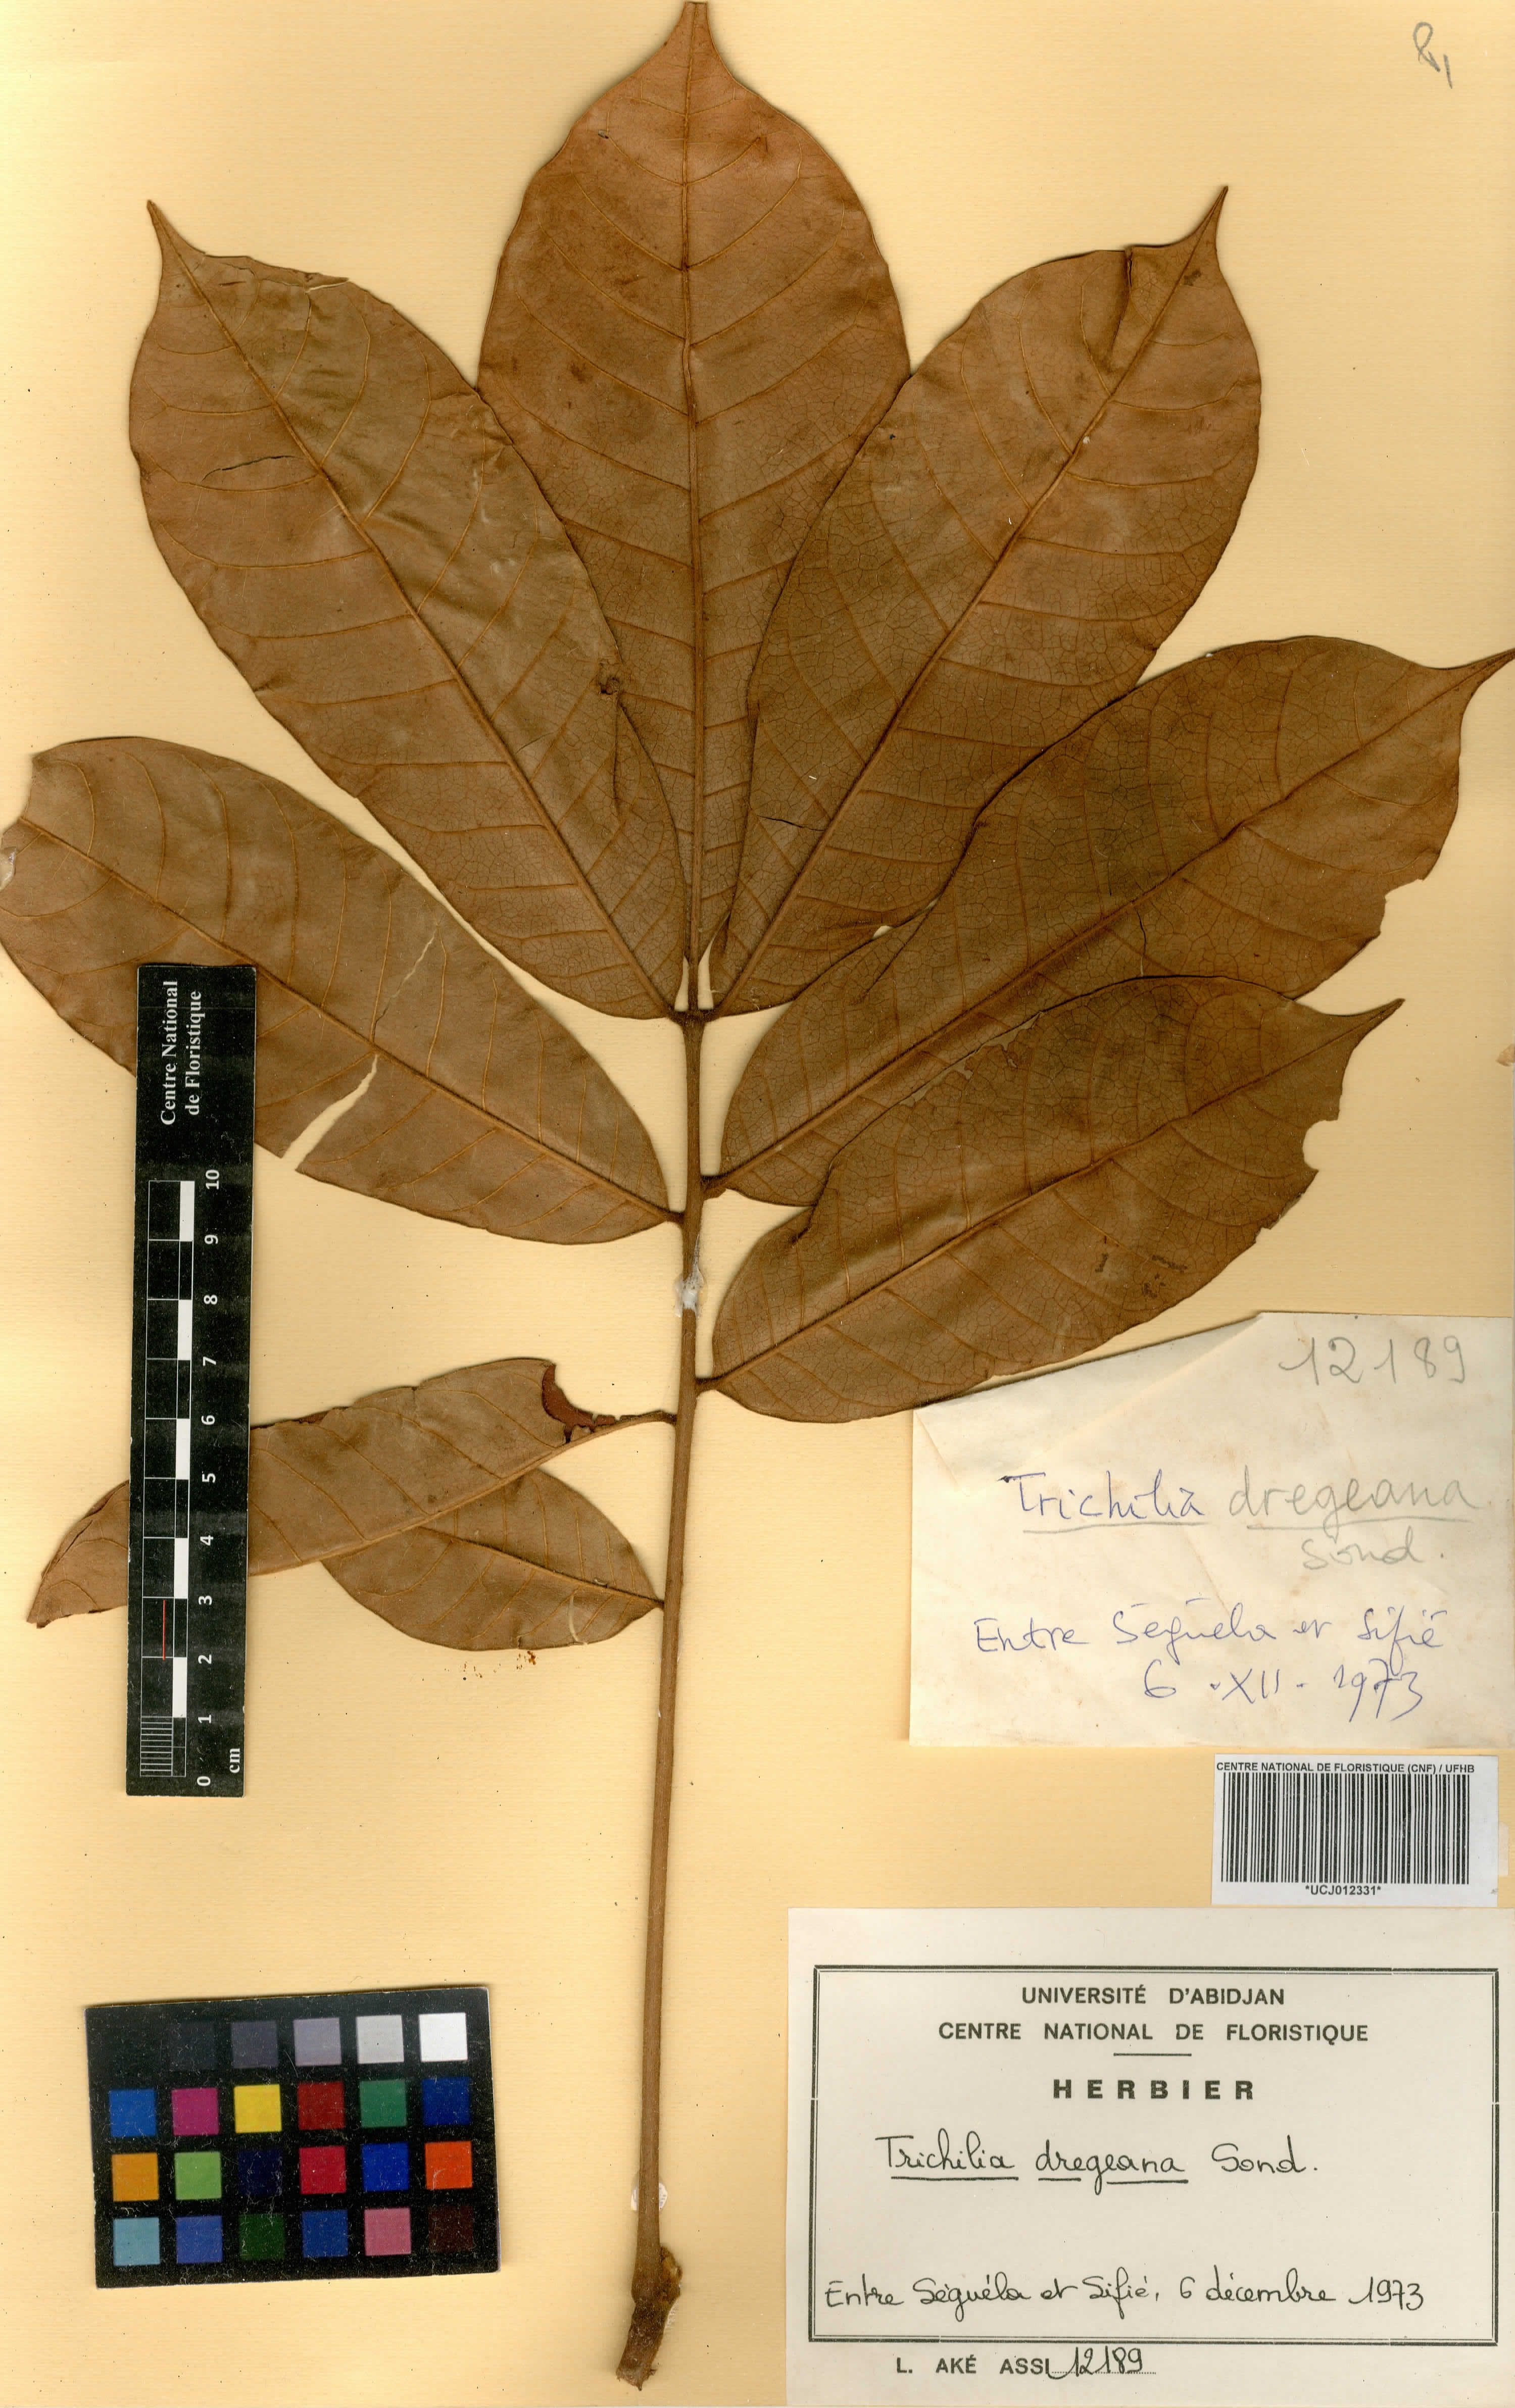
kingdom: Plantae
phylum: Tracheophyta
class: Magnoliopsida
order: Sapindales
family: Meliaceae
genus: Trichilia
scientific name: Trichilia dregeana
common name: Christmas-bells
